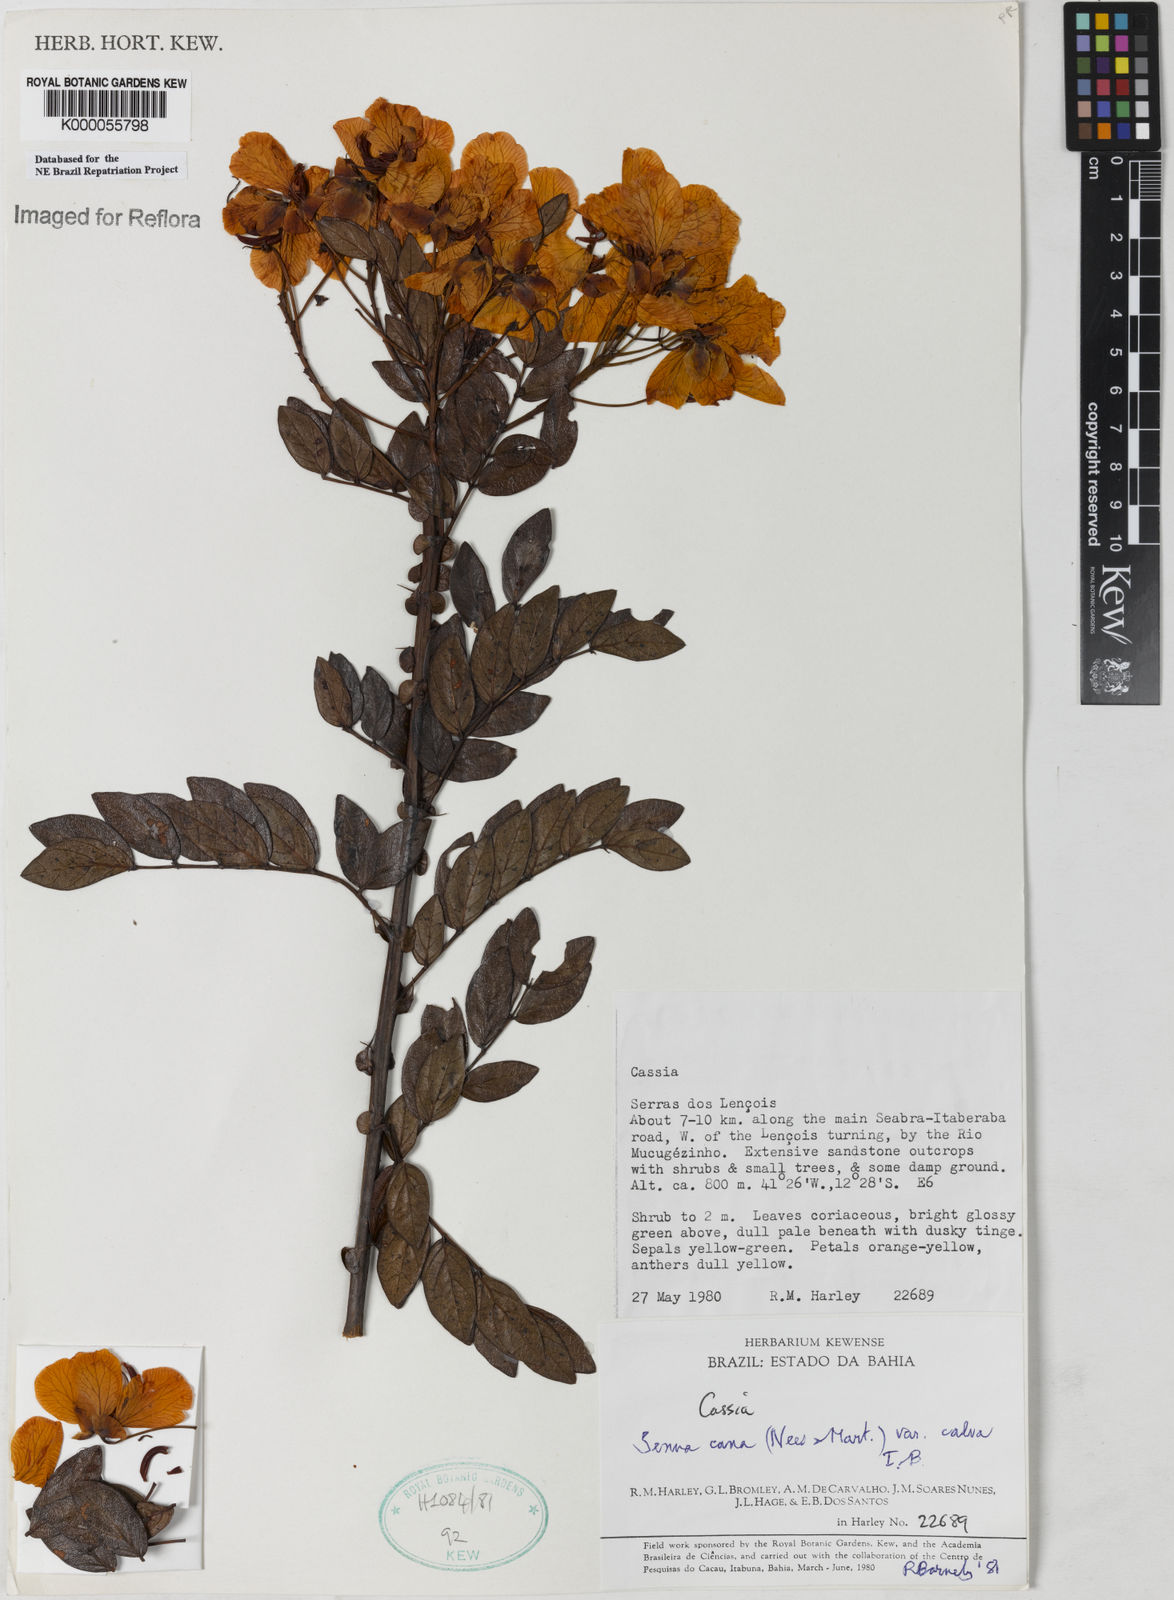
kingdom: Plantae
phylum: Tracheophyta
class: Magnoliopsida
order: Fabales
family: Fabaceae
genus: Senna
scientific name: Senna cana
